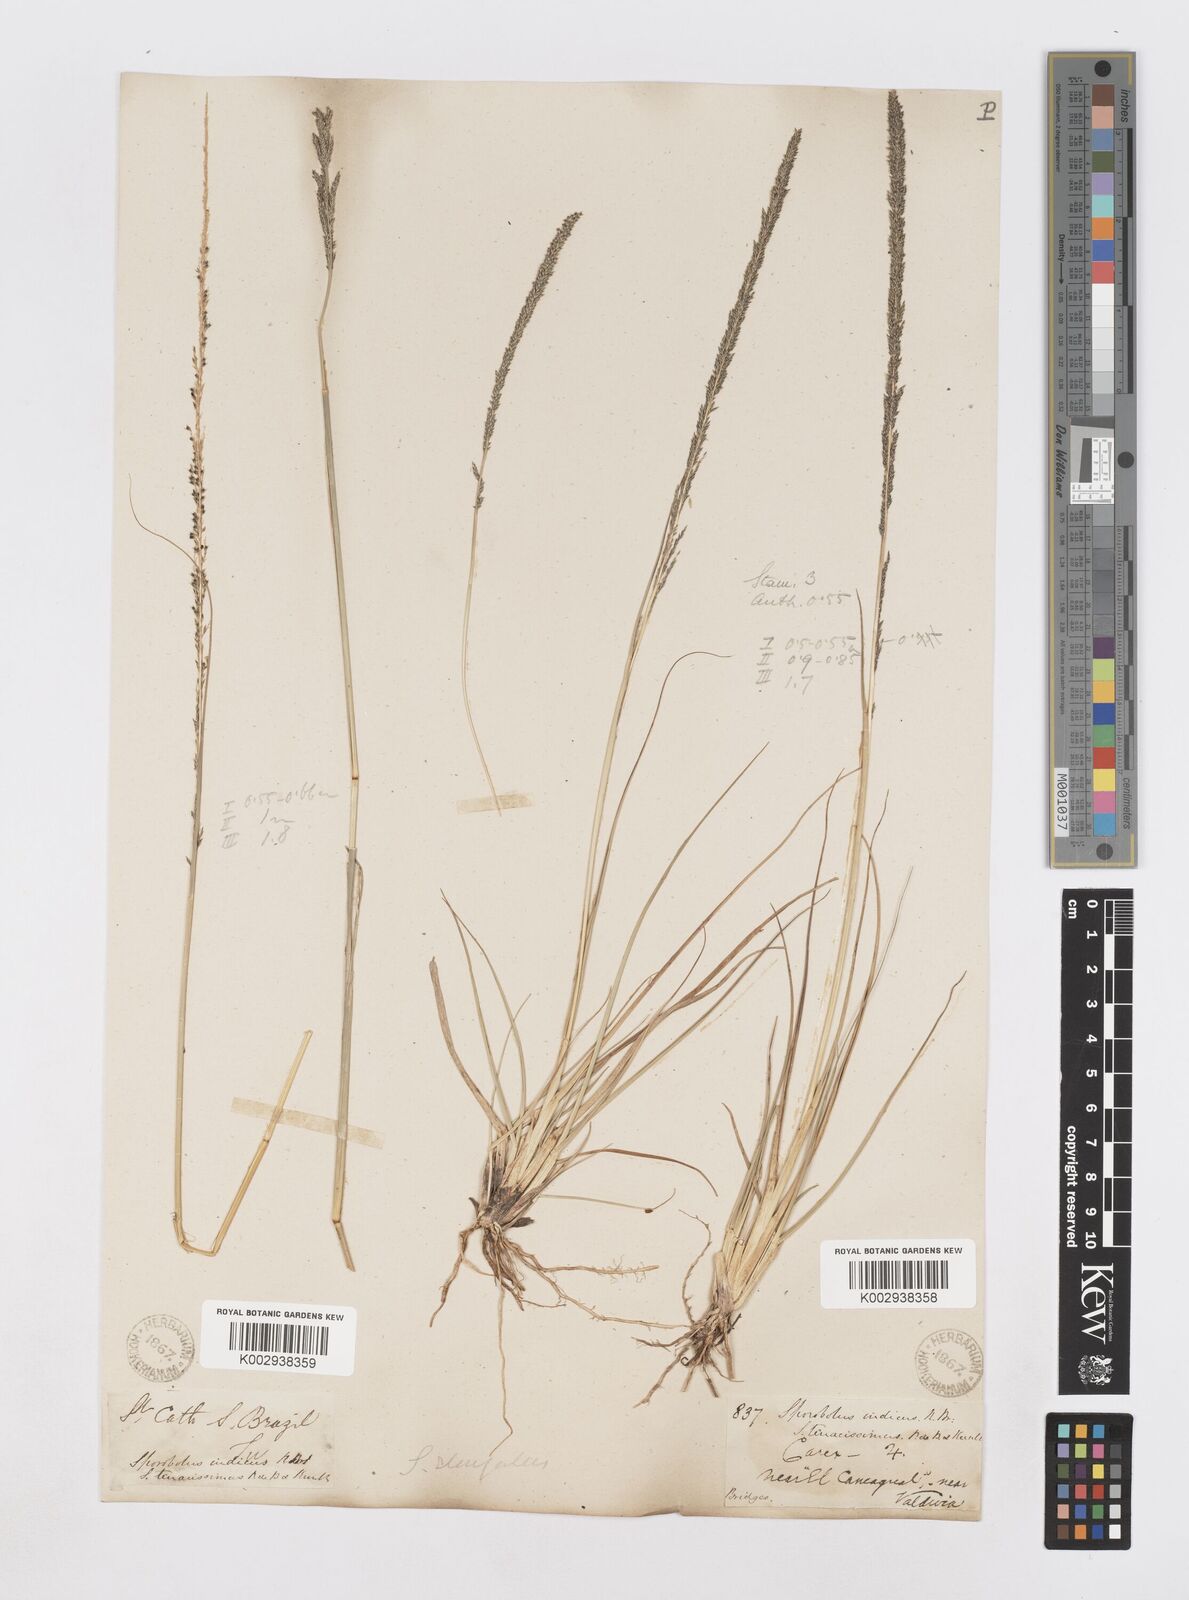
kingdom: Plantae
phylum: Tracheophyta
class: Liliopsida
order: Poales
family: Poaceae
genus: Sporobolus
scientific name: Sporobolus pyramidalis
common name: West indian dropseed
